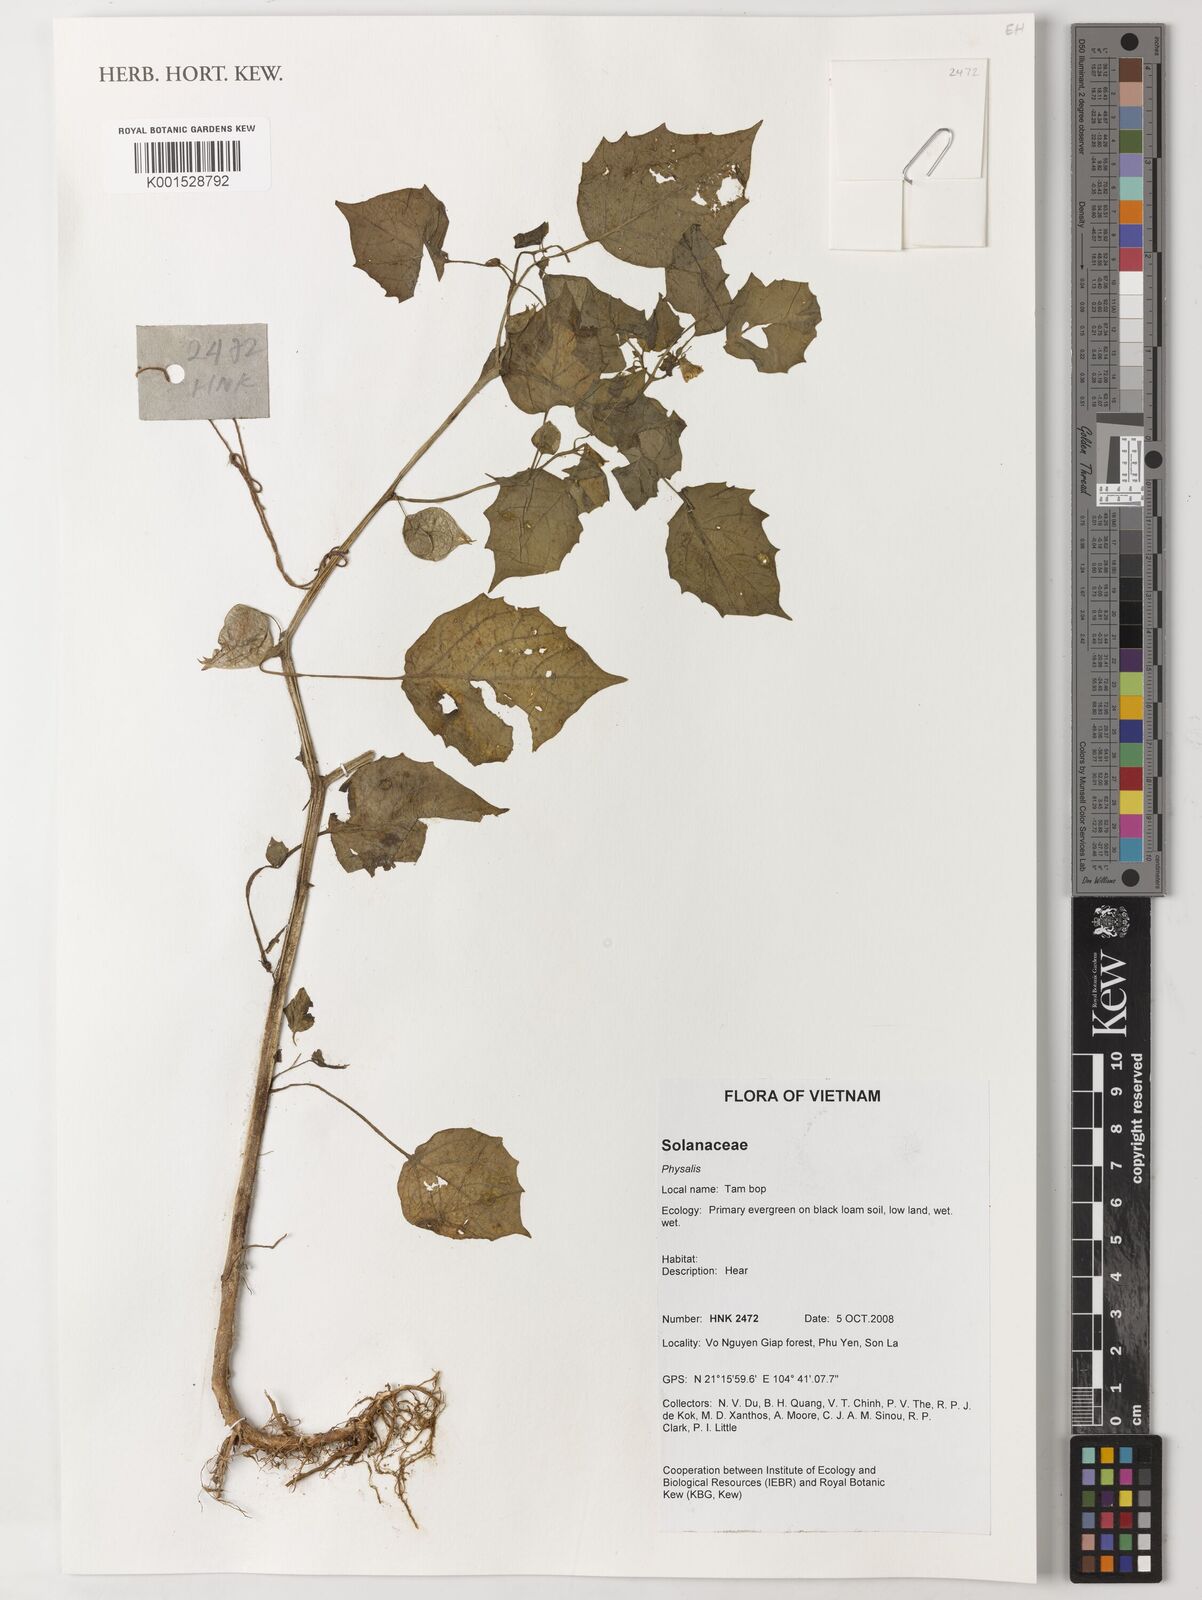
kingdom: Plantae
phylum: Tracheophyta
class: Magnoliopsida
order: Solanales
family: Solanaceae
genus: Physalis
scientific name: Physalis
